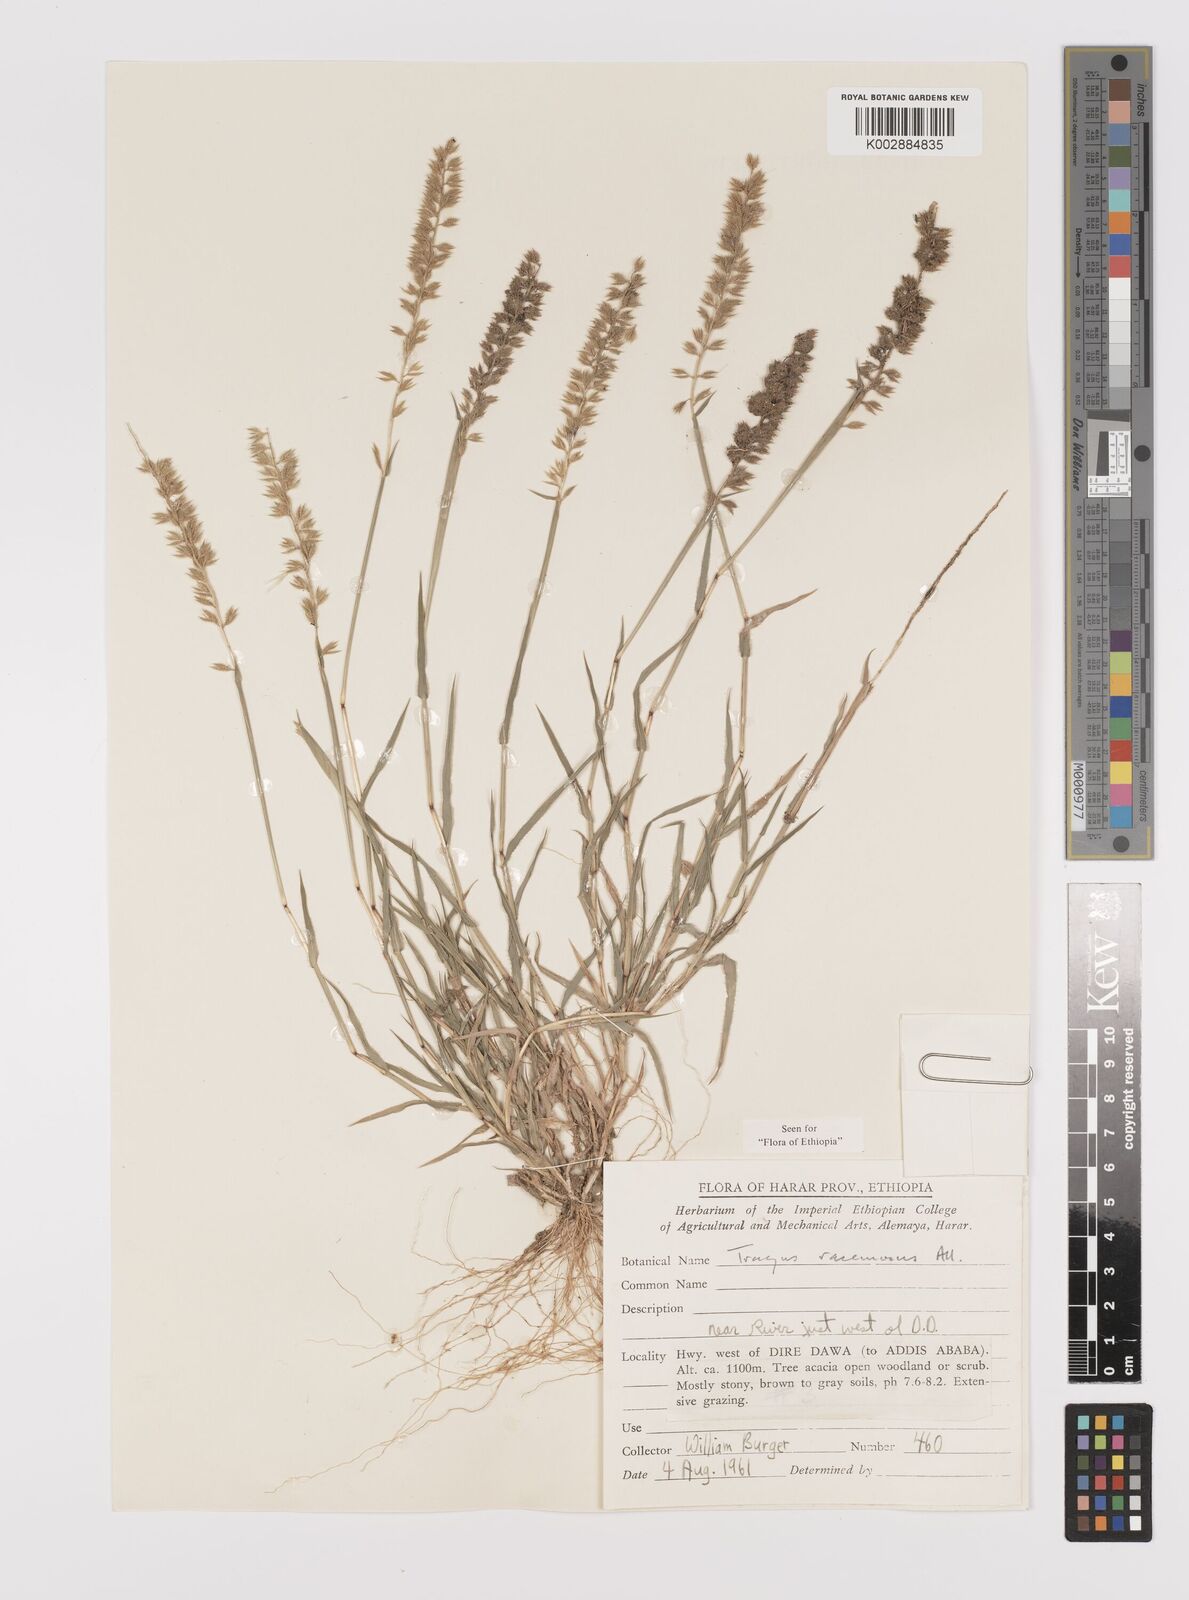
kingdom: Plantae
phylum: Tracheophyta
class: Liliopsida
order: Poales
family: Poaceae
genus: Tragus
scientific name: Tragus racemosus
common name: European bur-grass
